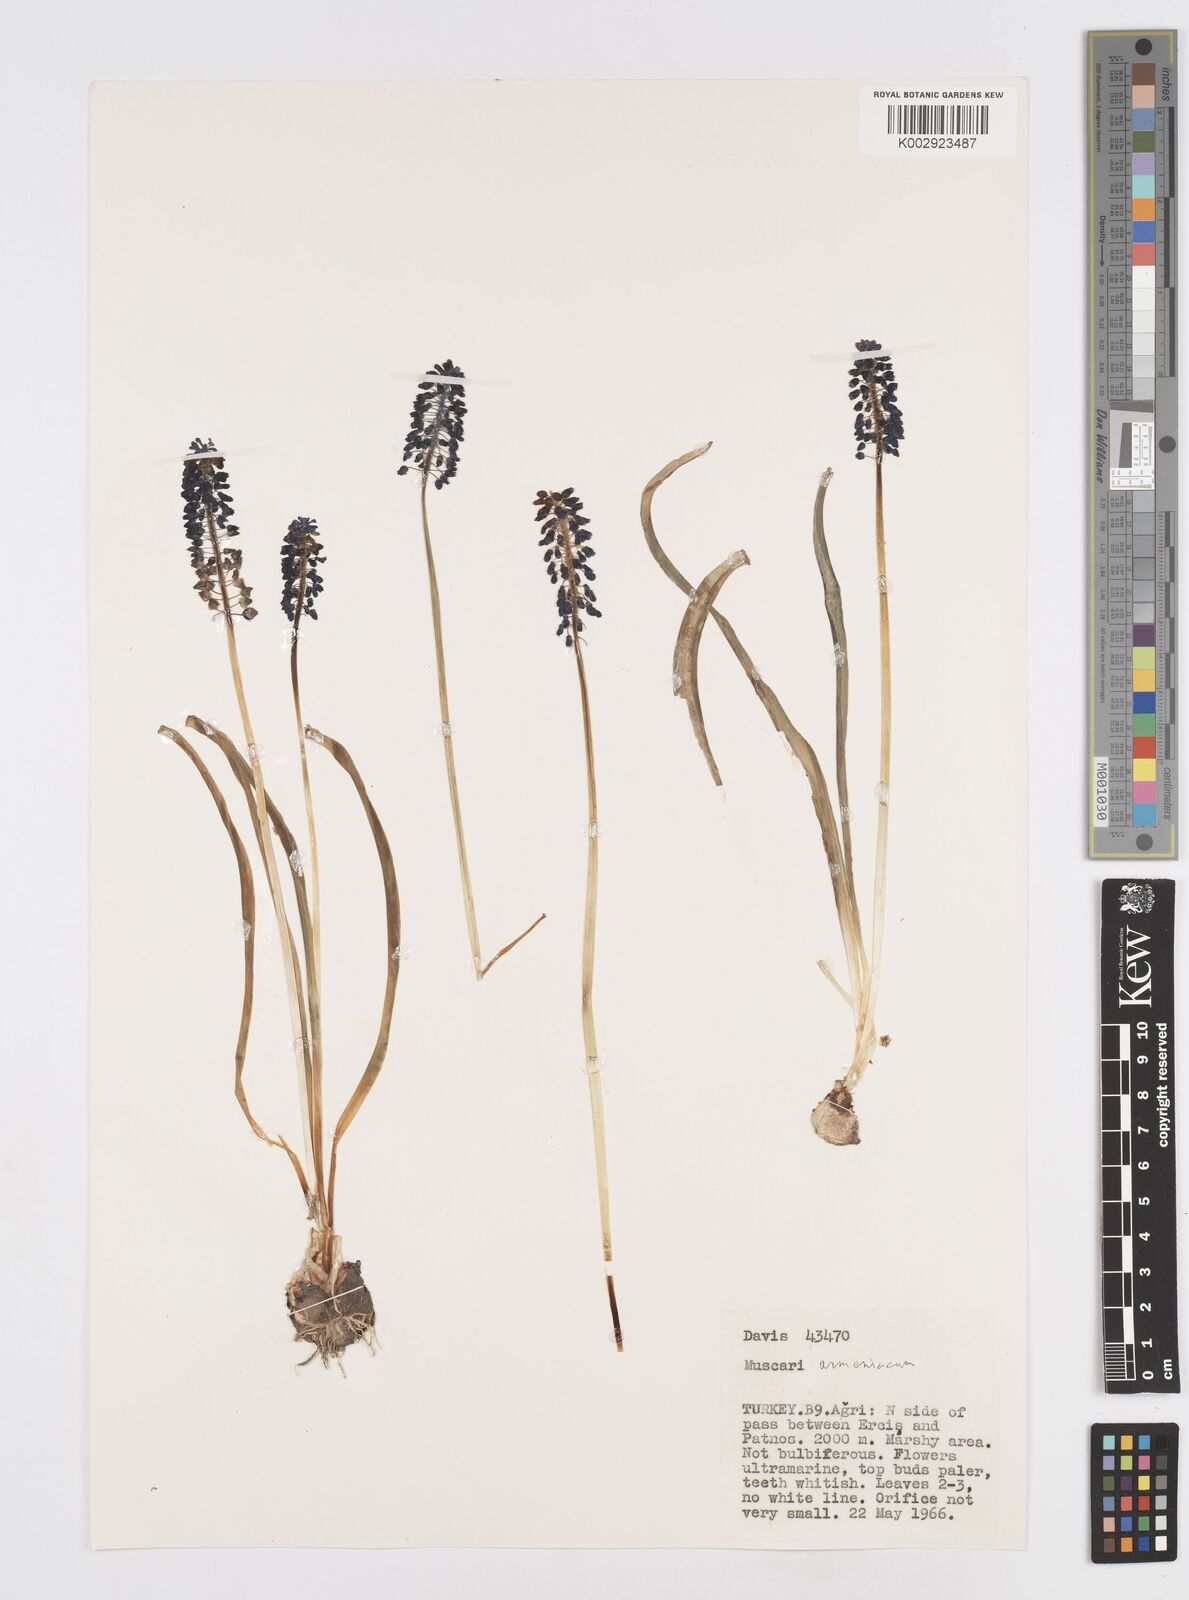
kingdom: Plantae
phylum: Tracheophyta
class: Liliopsida
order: Asparagales
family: Asparagaceae
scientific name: Asparagaceae
